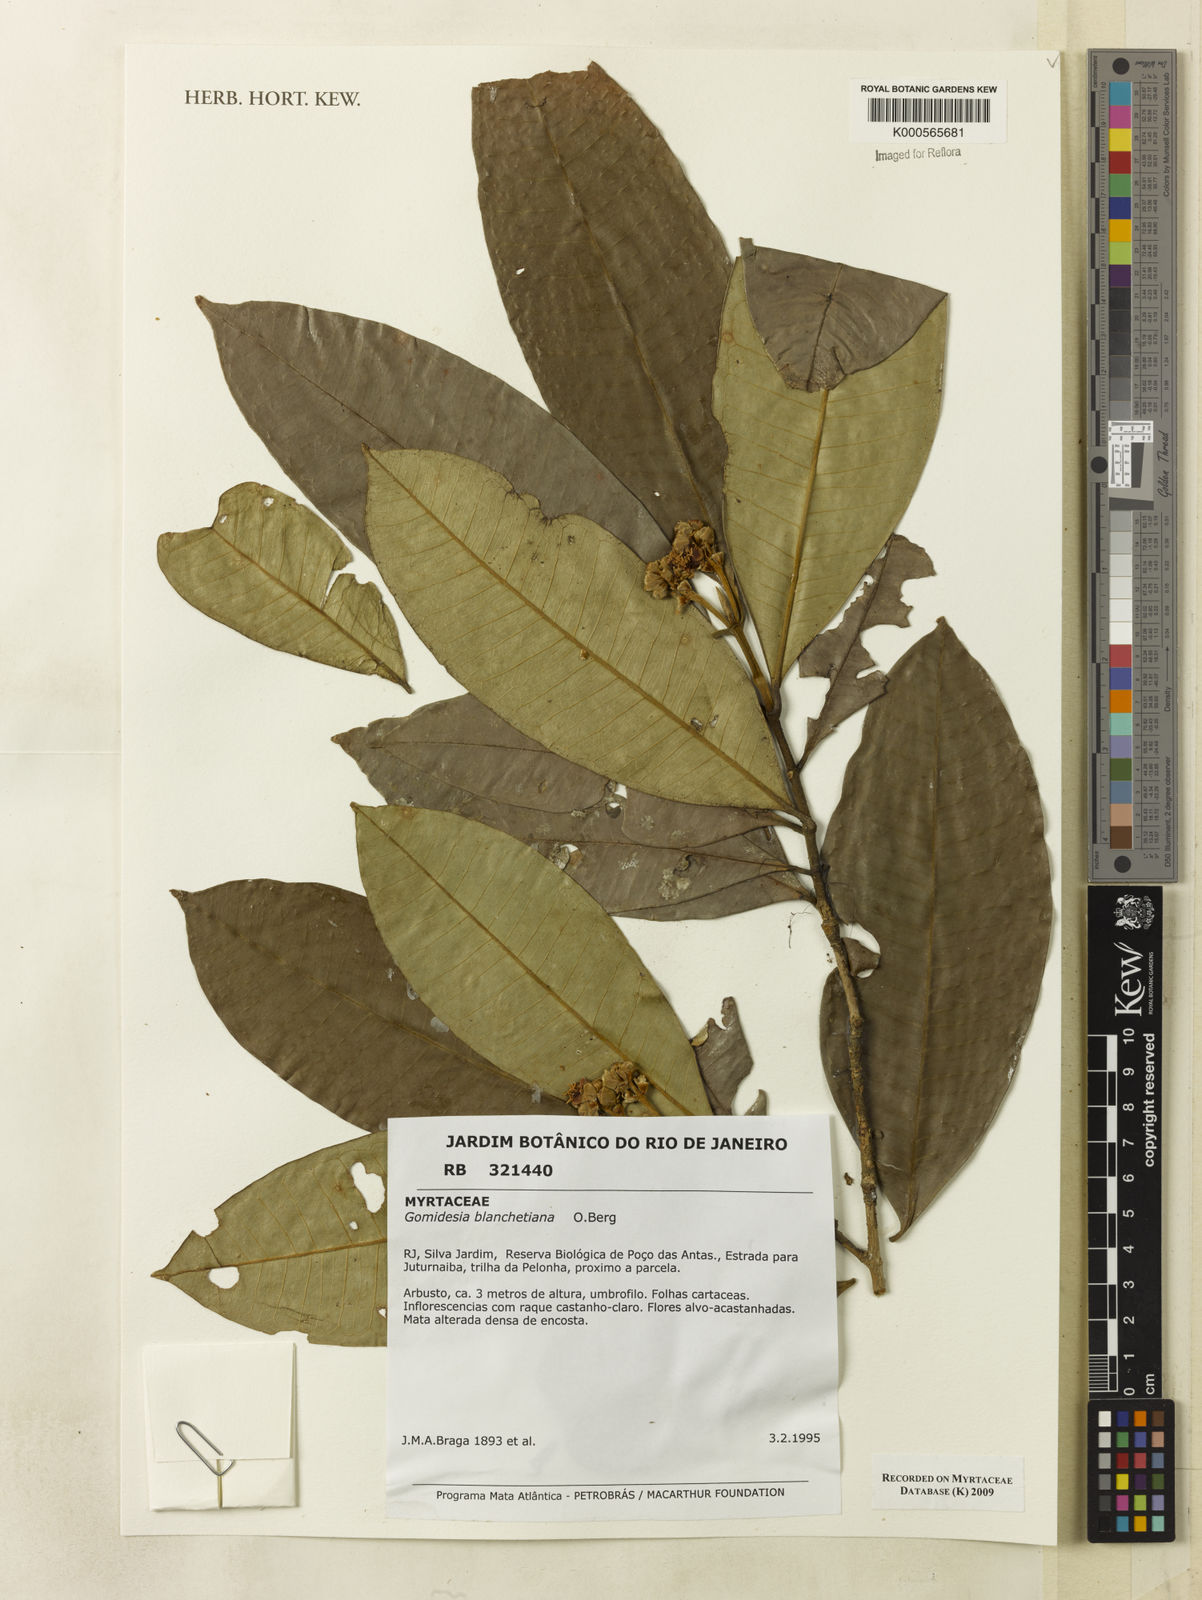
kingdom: Plantae
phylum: Tracheophyta
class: Magnoliopsida
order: Myrtales
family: Myrtaceae
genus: Myrcia
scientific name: Myrcia neoblanchetiana
